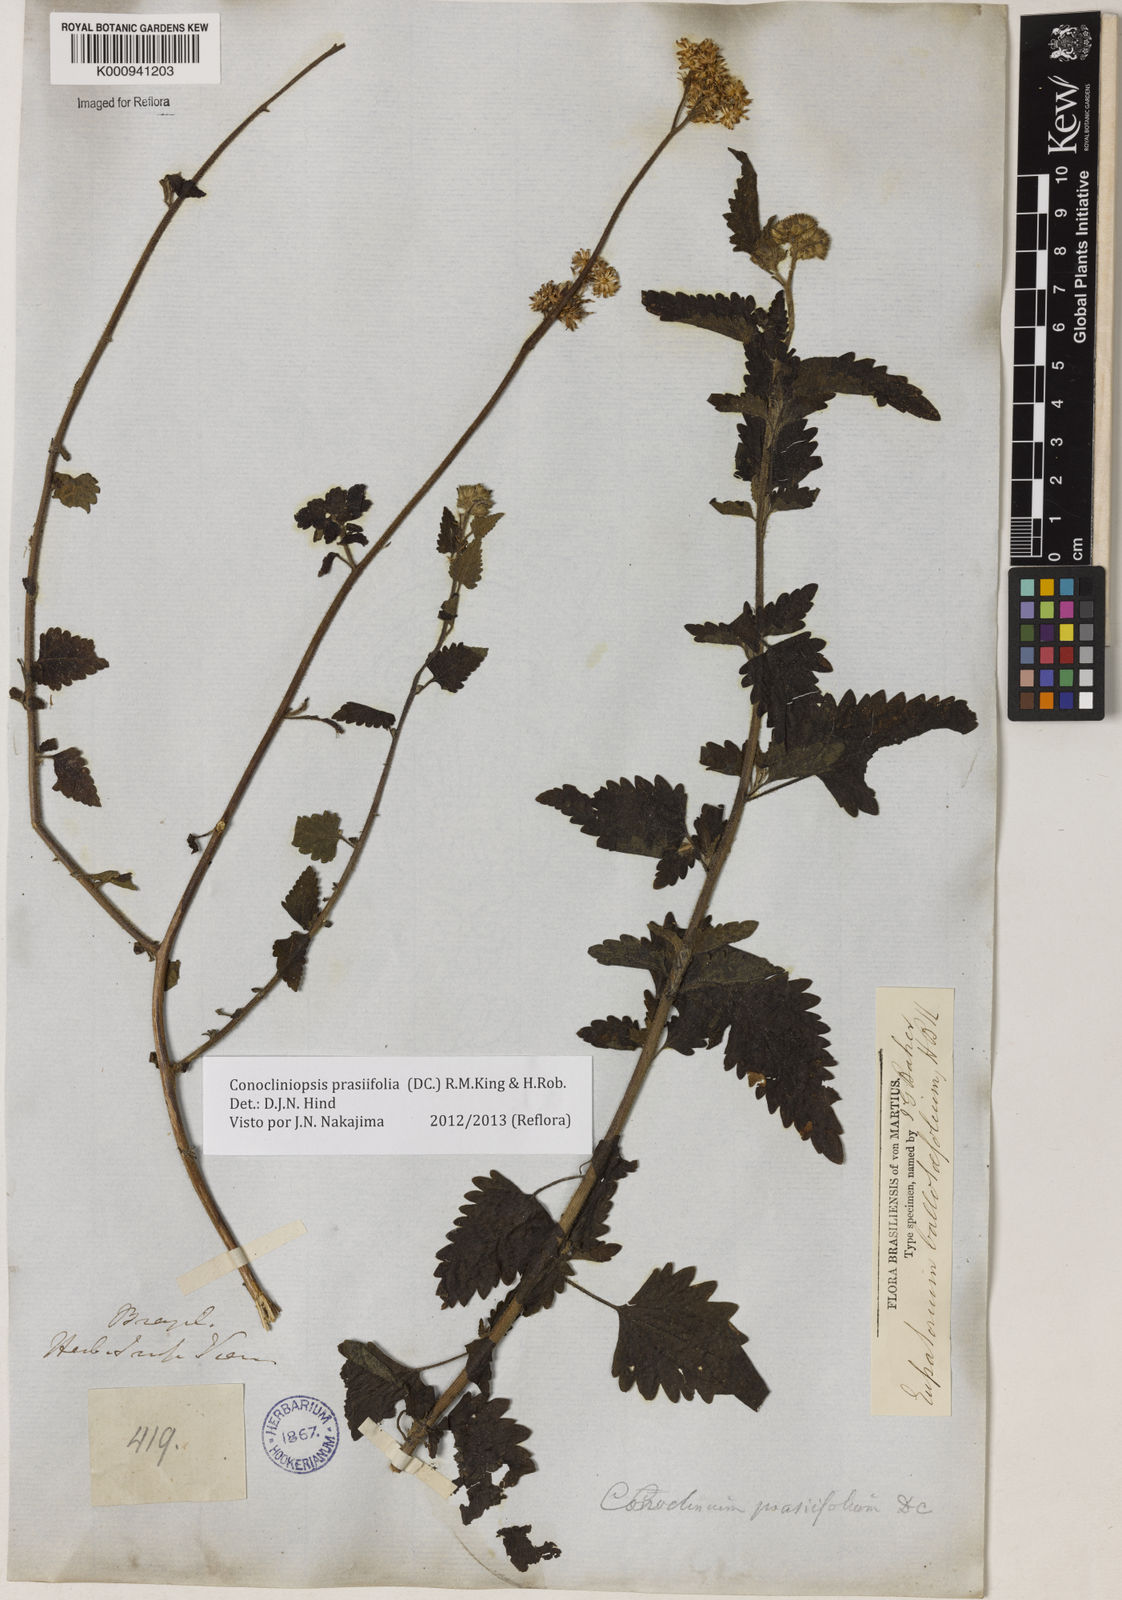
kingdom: Plantae
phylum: Tracheophyta
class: Magnoliopsida
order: Asterales
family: Asteraceae
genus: Conocliniopsis
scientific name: Conocliniopsis grossedentata
